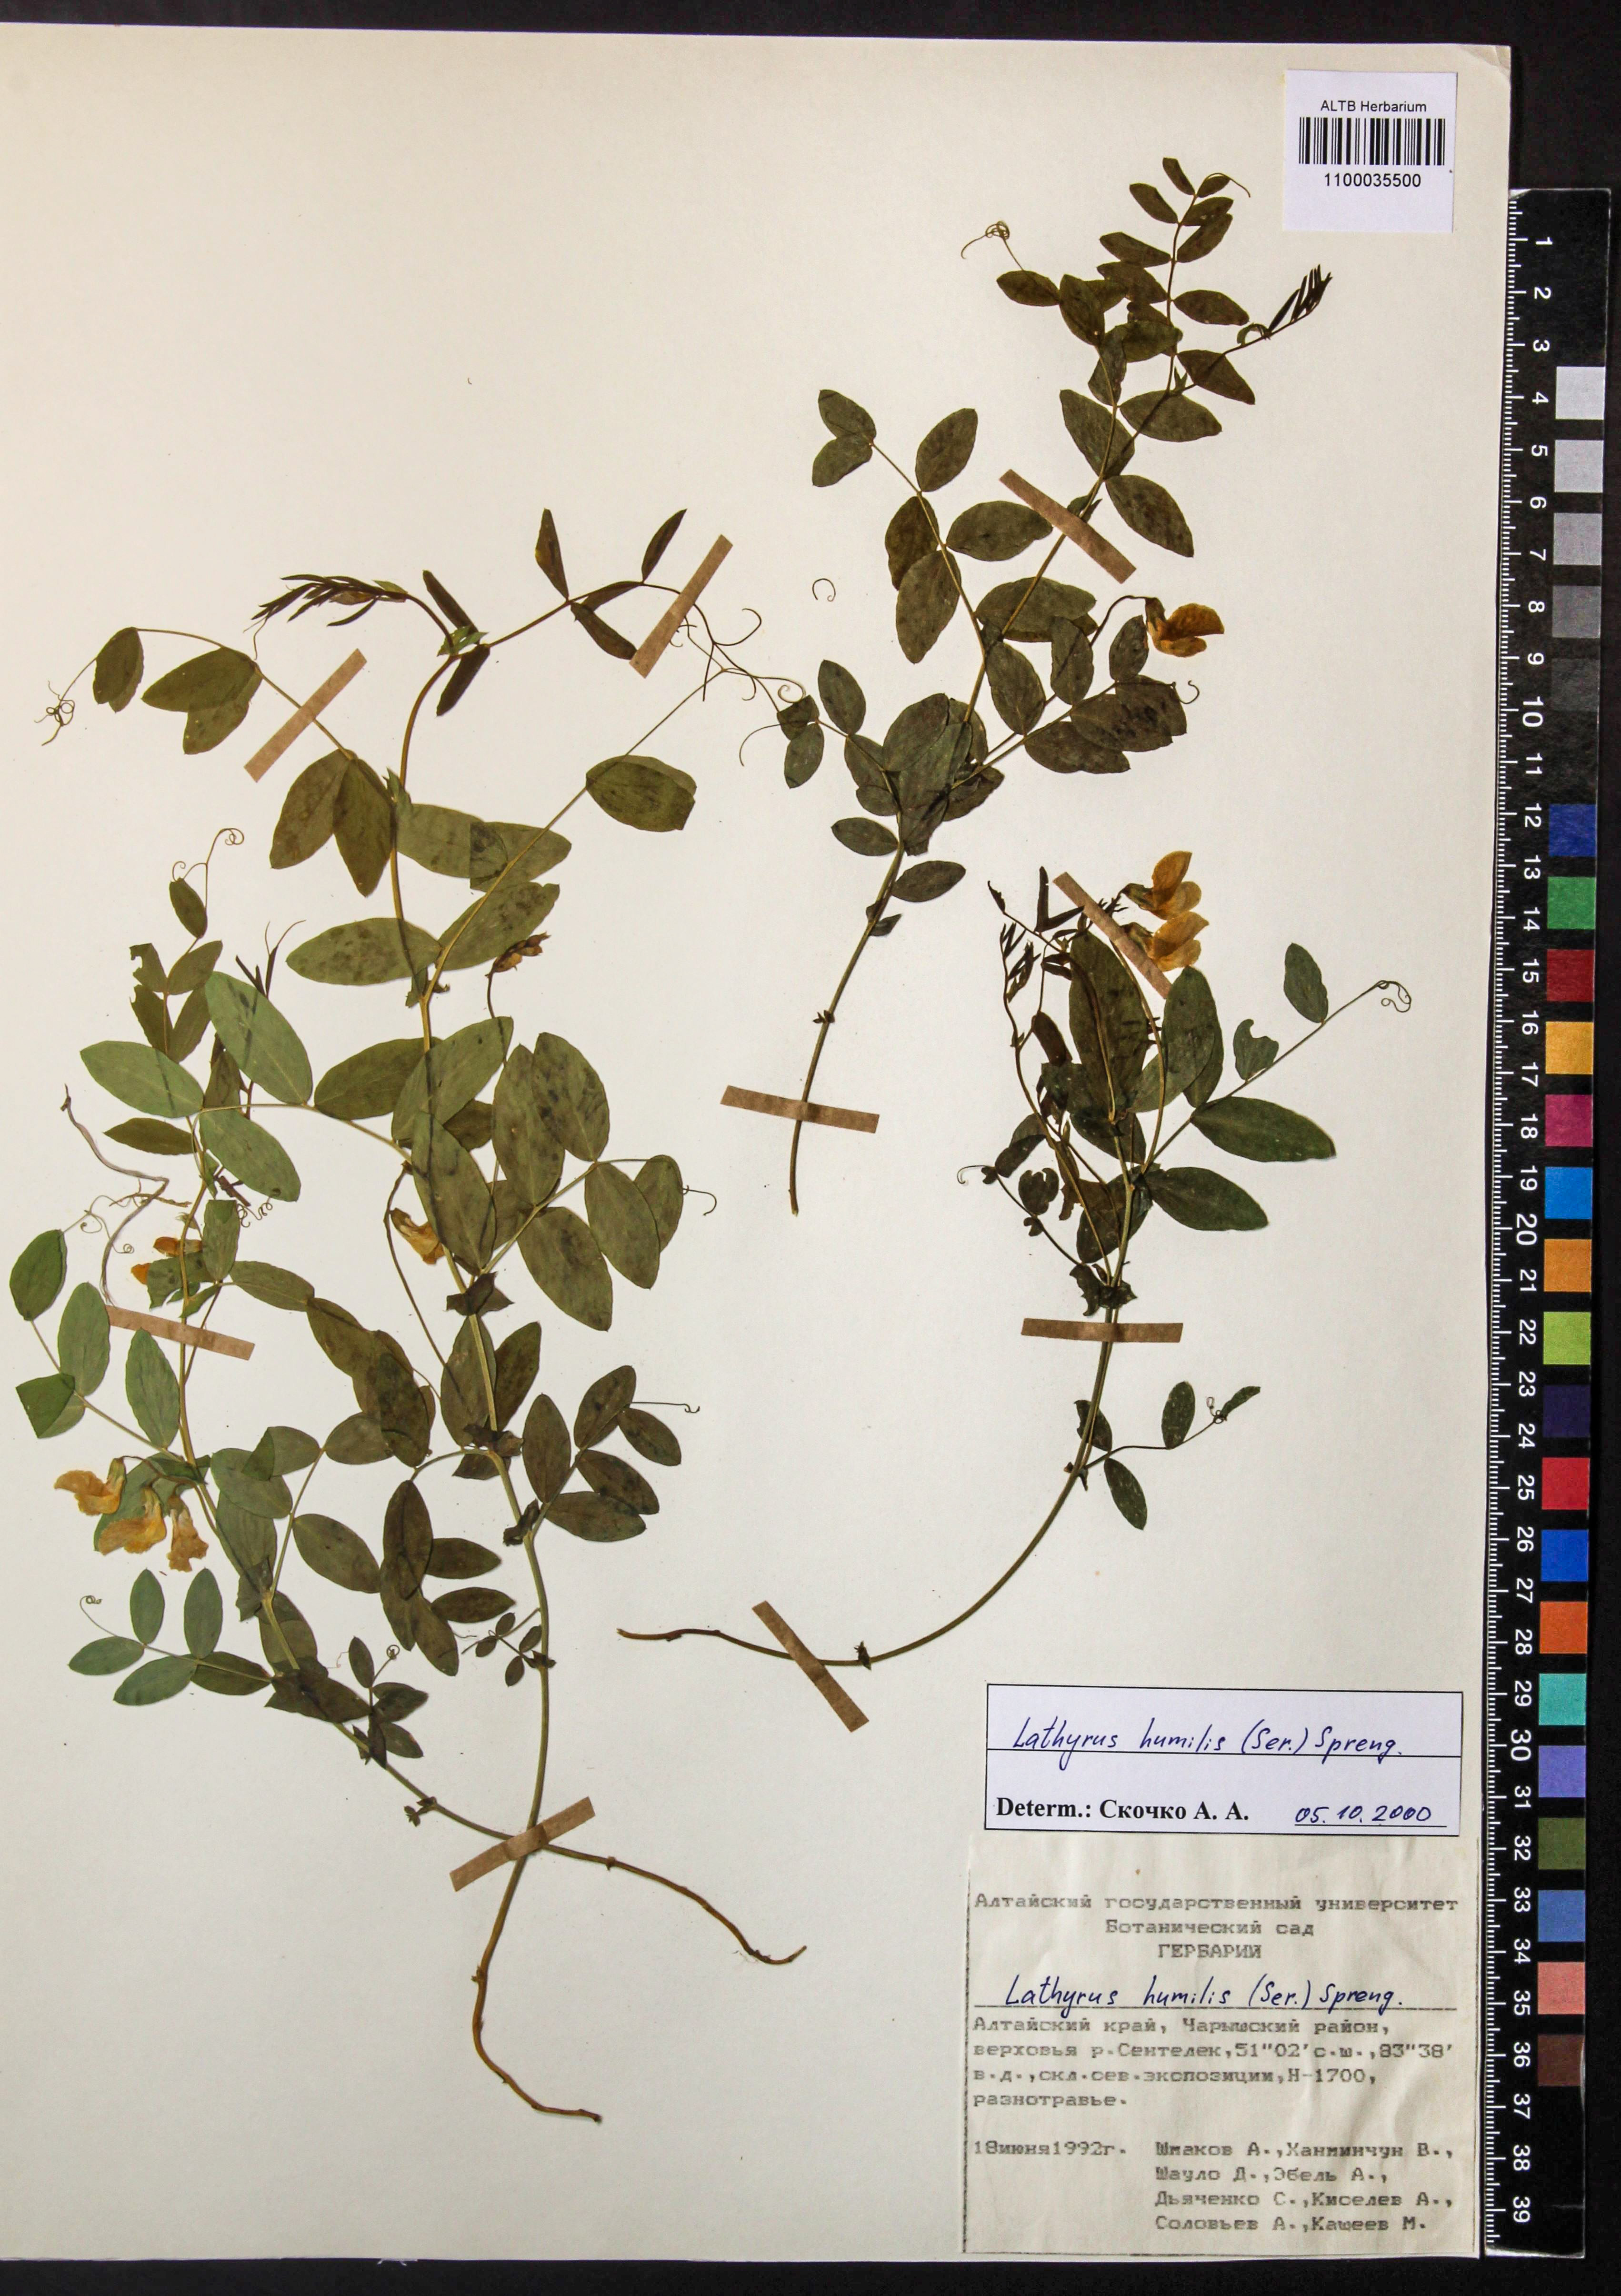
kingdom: Plantae
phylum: Tracheophyta
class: Magnoliopsida
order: Fabales
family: Fabaceae
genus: Lathyrus
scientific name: Lathyrus humilis
